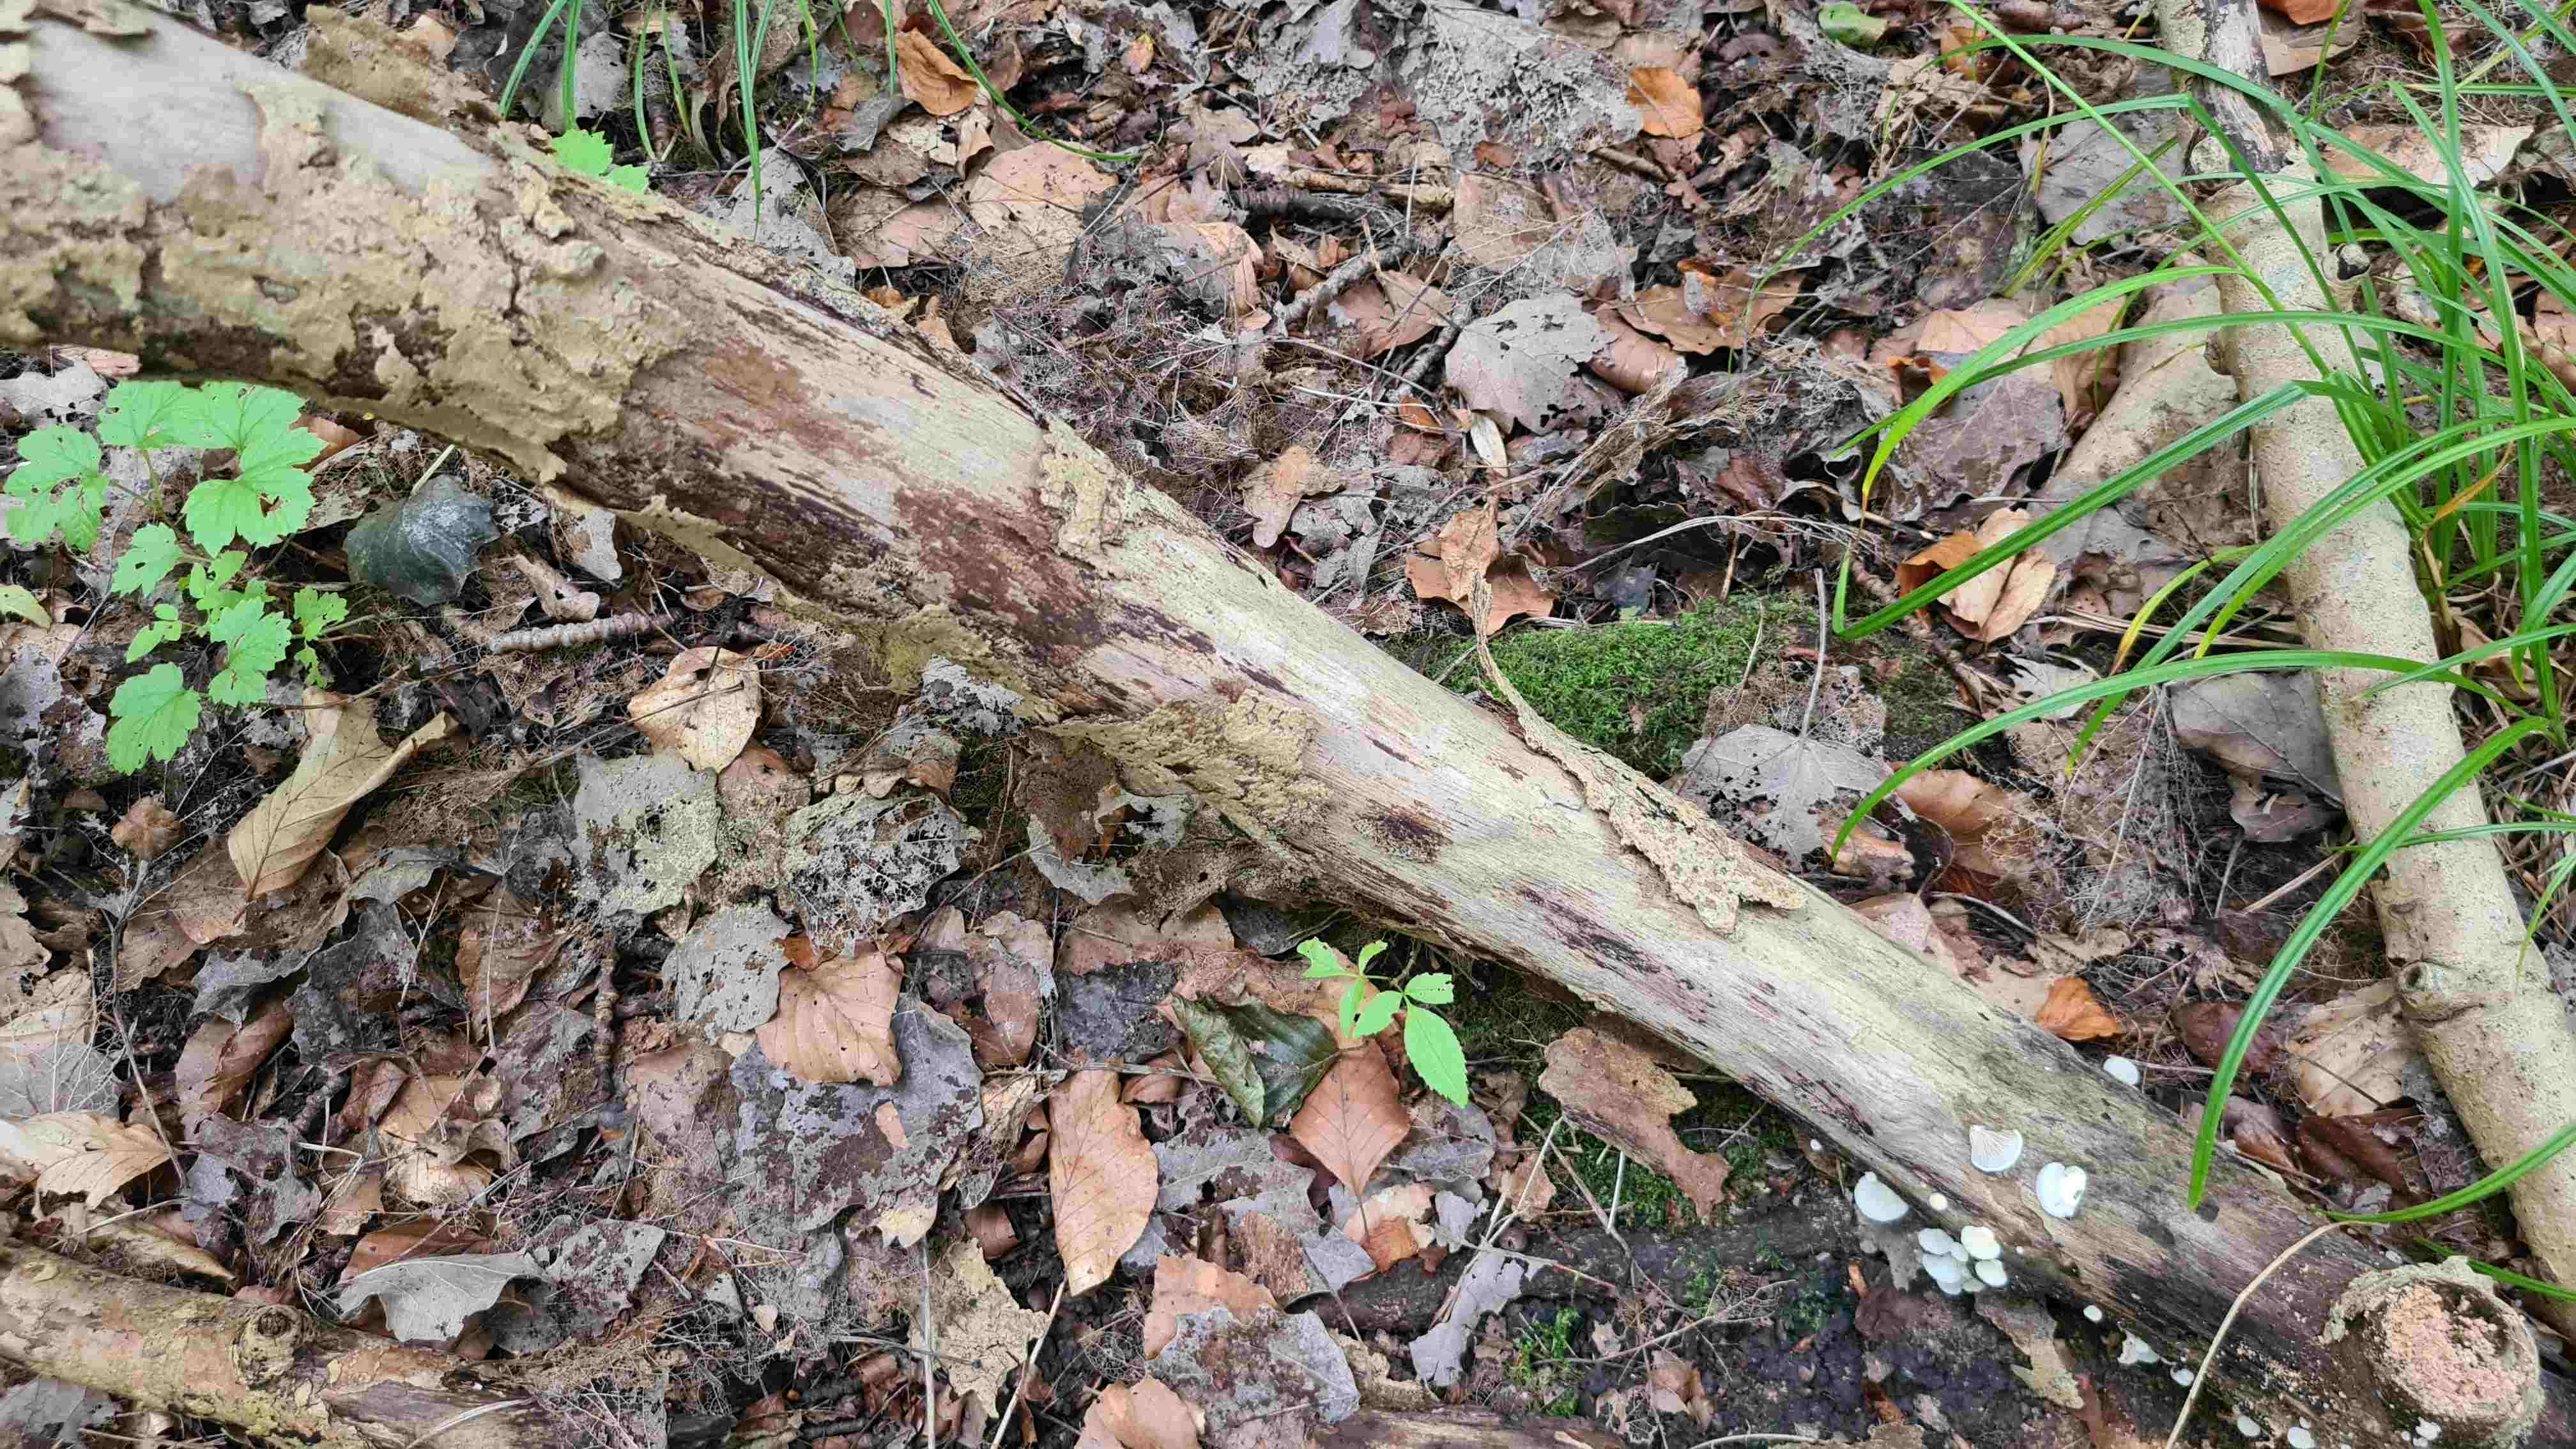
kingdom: Fungi
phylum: Basidiomycota
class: Agaricomycetes
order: Agaricales
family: Crepidotaceae
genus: Crepidotus
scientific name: Crepidotus mollis
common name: blød muslingesvamp
